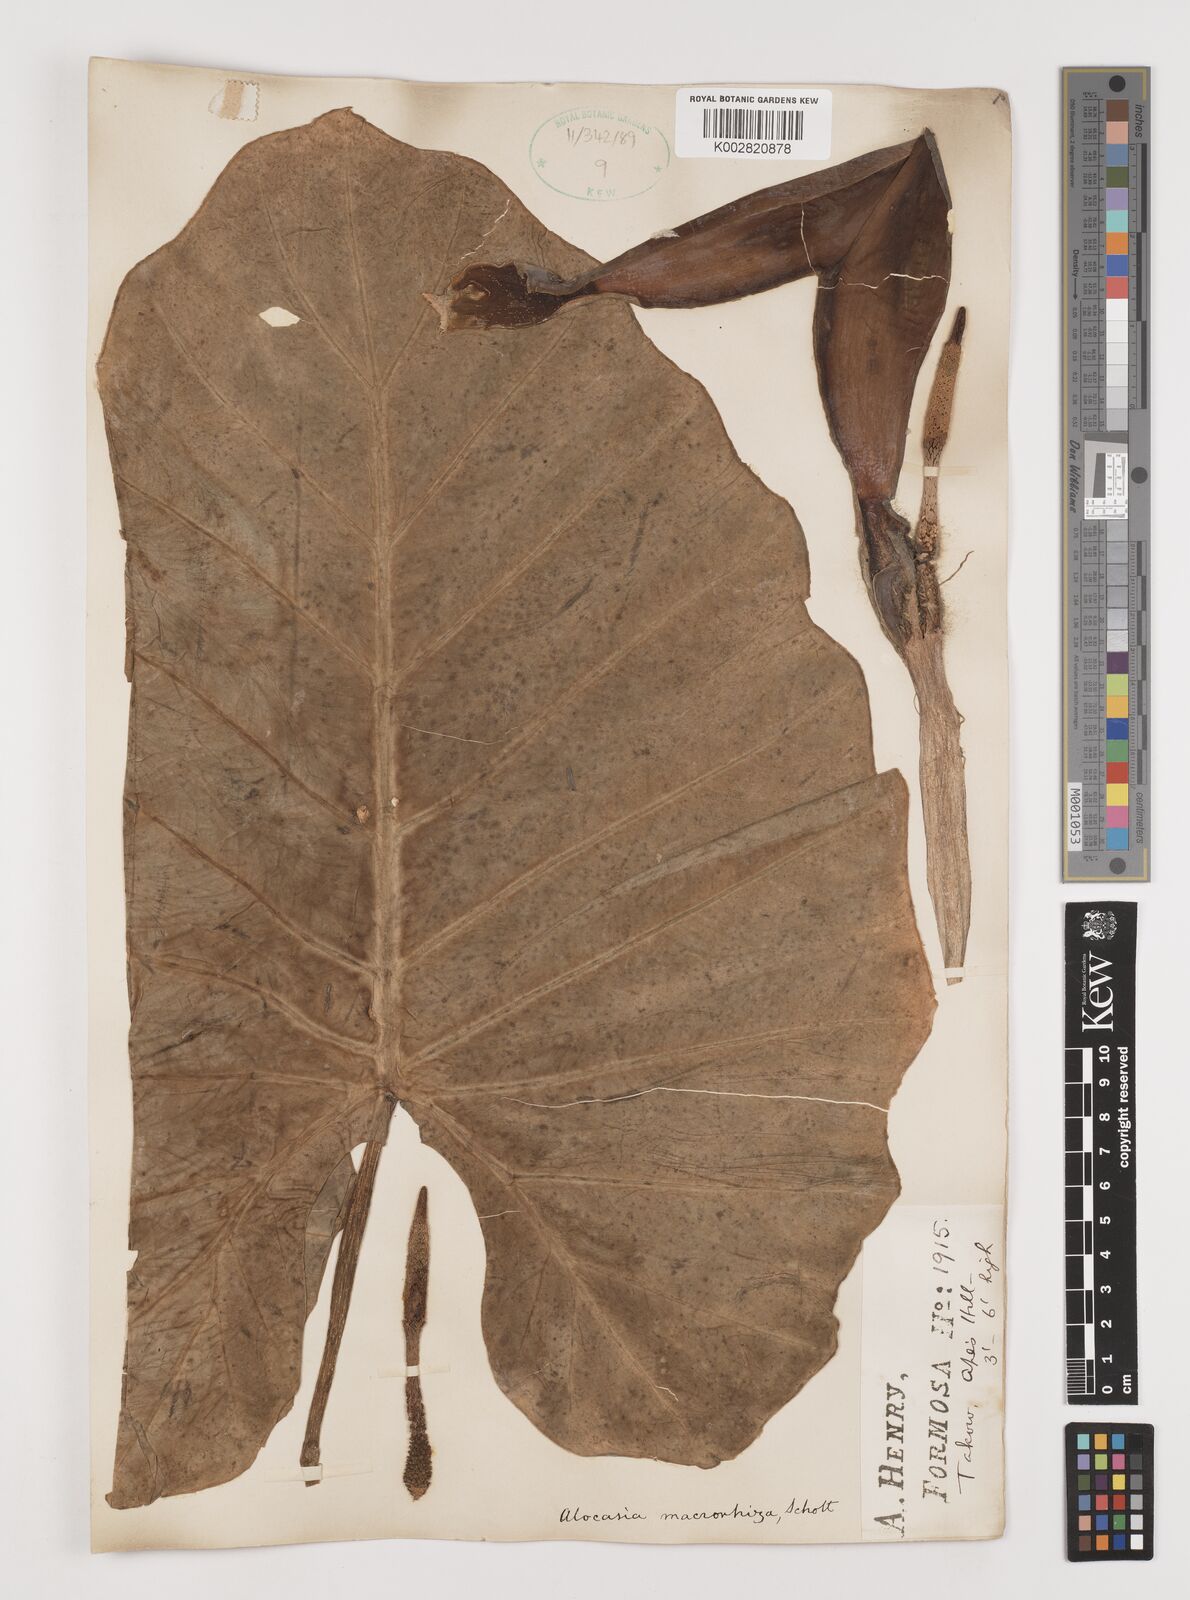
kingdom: Plantae
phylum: Tracheophyta
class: Liliopsida
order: Alismatales
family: Araceae
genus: Alocasia
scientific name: Alocasia macrorrhizos
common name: Giant taro
